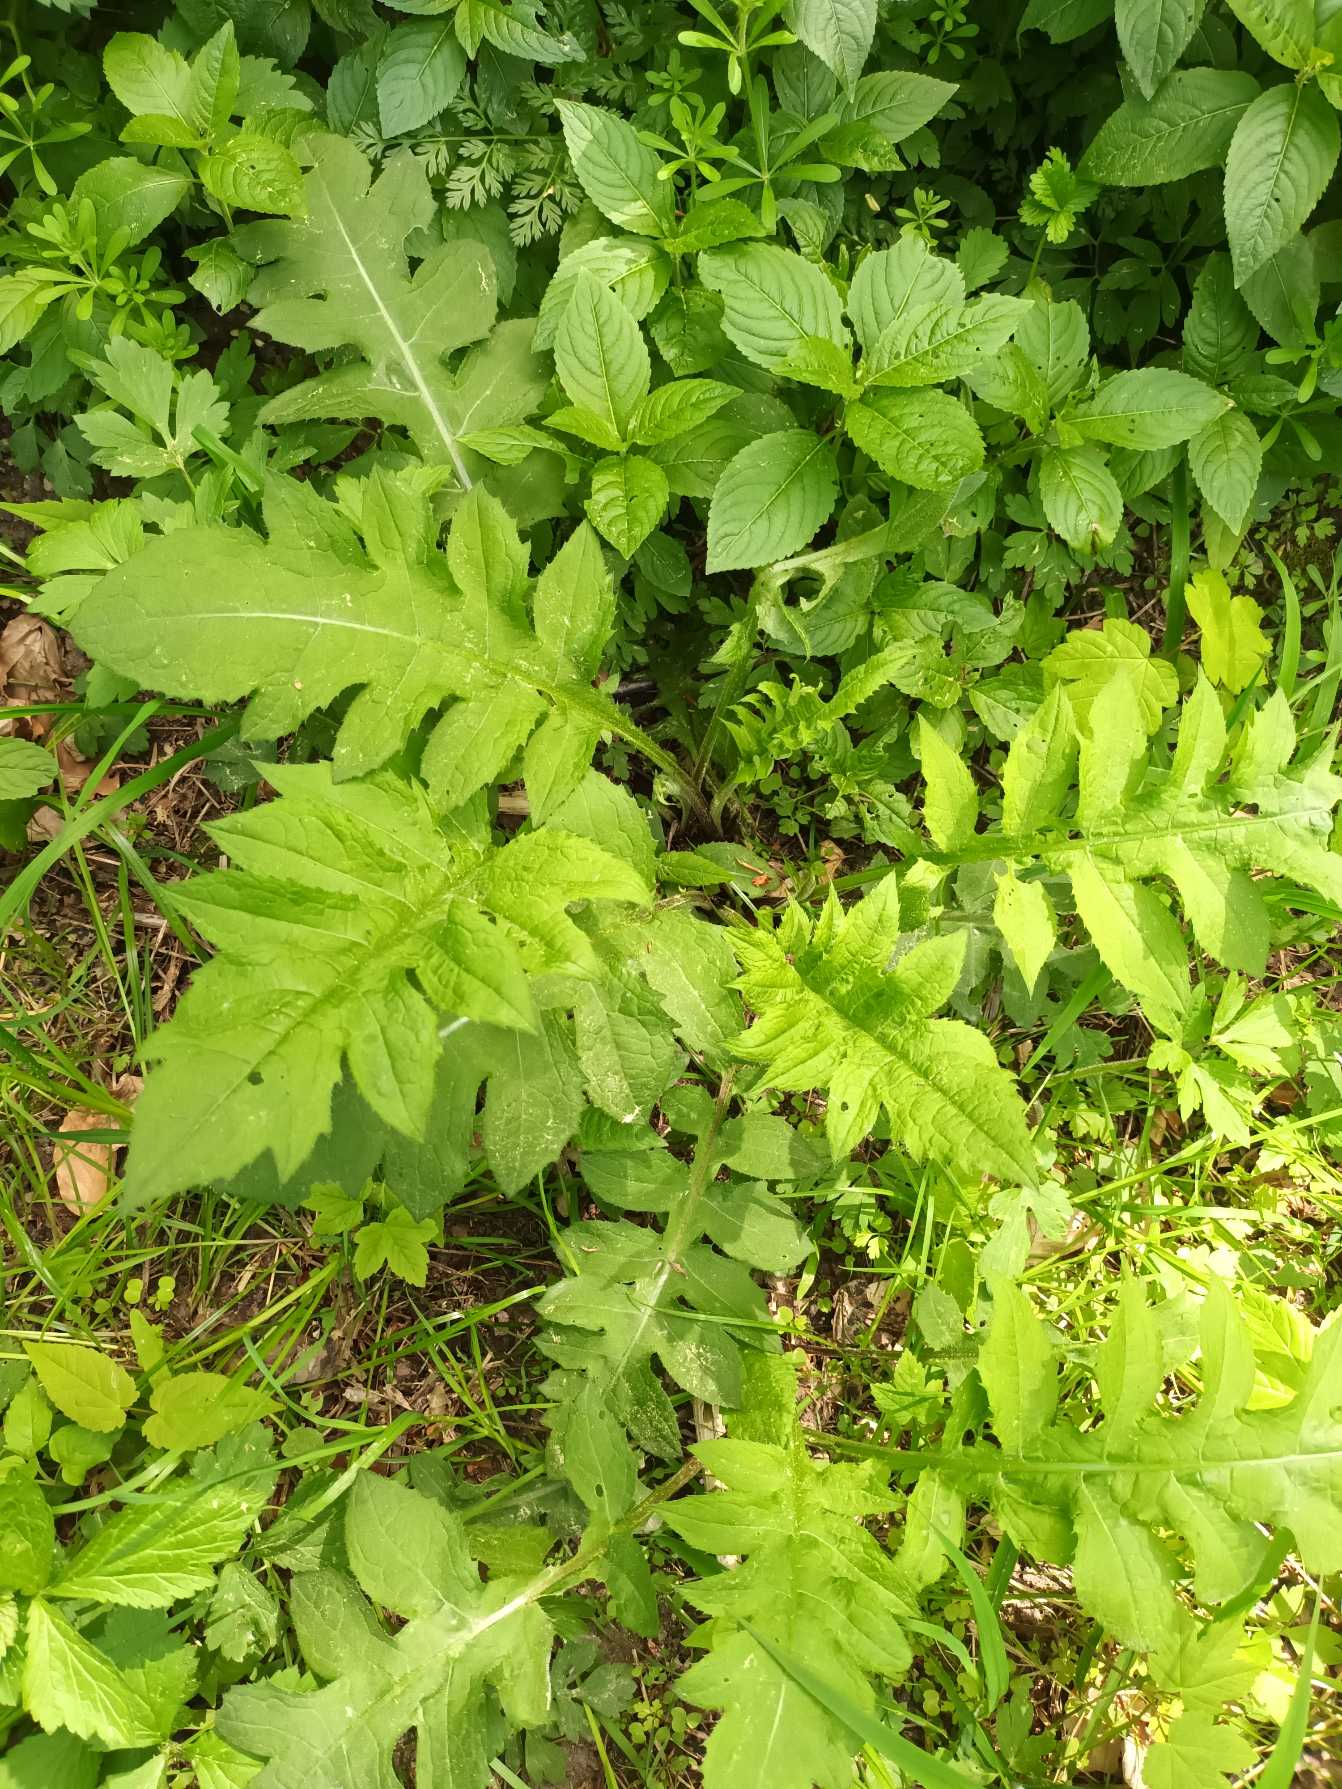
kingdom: Plantae
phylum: Tracheophyta
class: Magnoliopsida
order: Asterales
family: Asteraceae
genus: Cirsium
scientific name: Cirsium oleraceum
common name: Kål-tidsel
